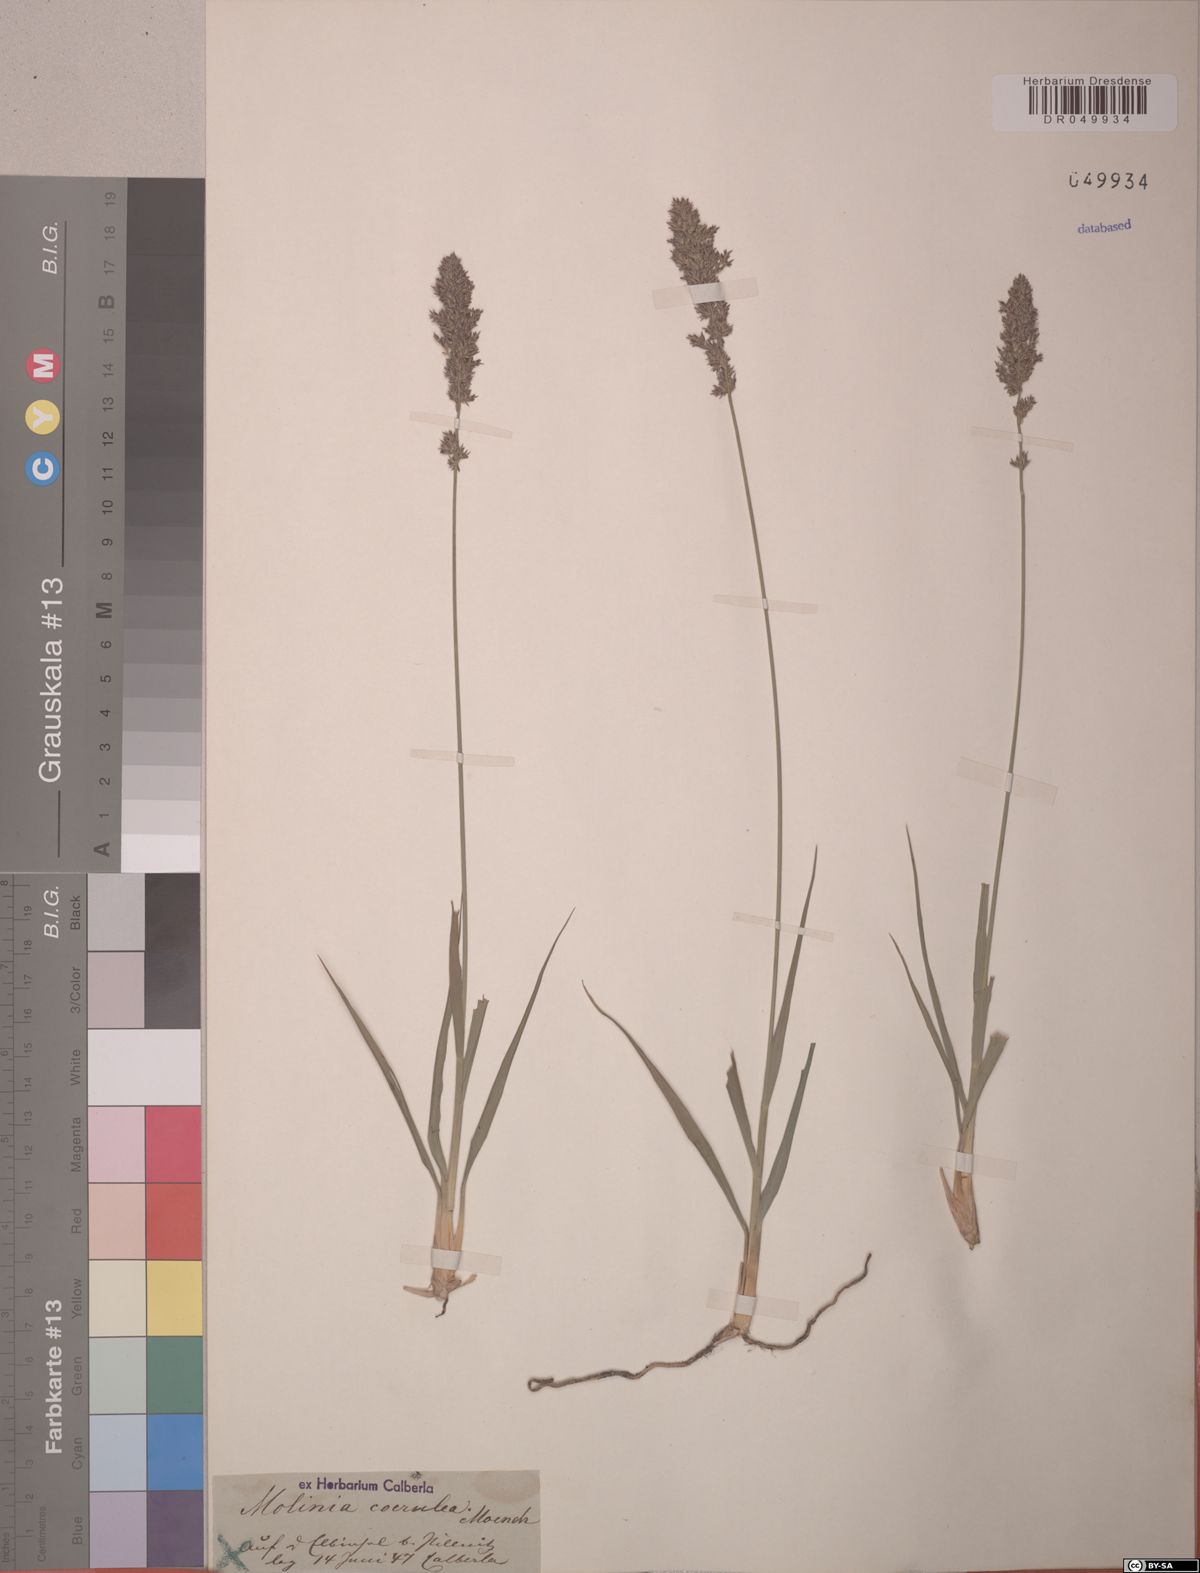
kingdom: Plantae
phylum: Tracheophyta
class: Liliopsida
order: Poales
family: Poaceae
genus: Molinia
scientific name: Molinia caerulea
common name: Purple moor-grass
